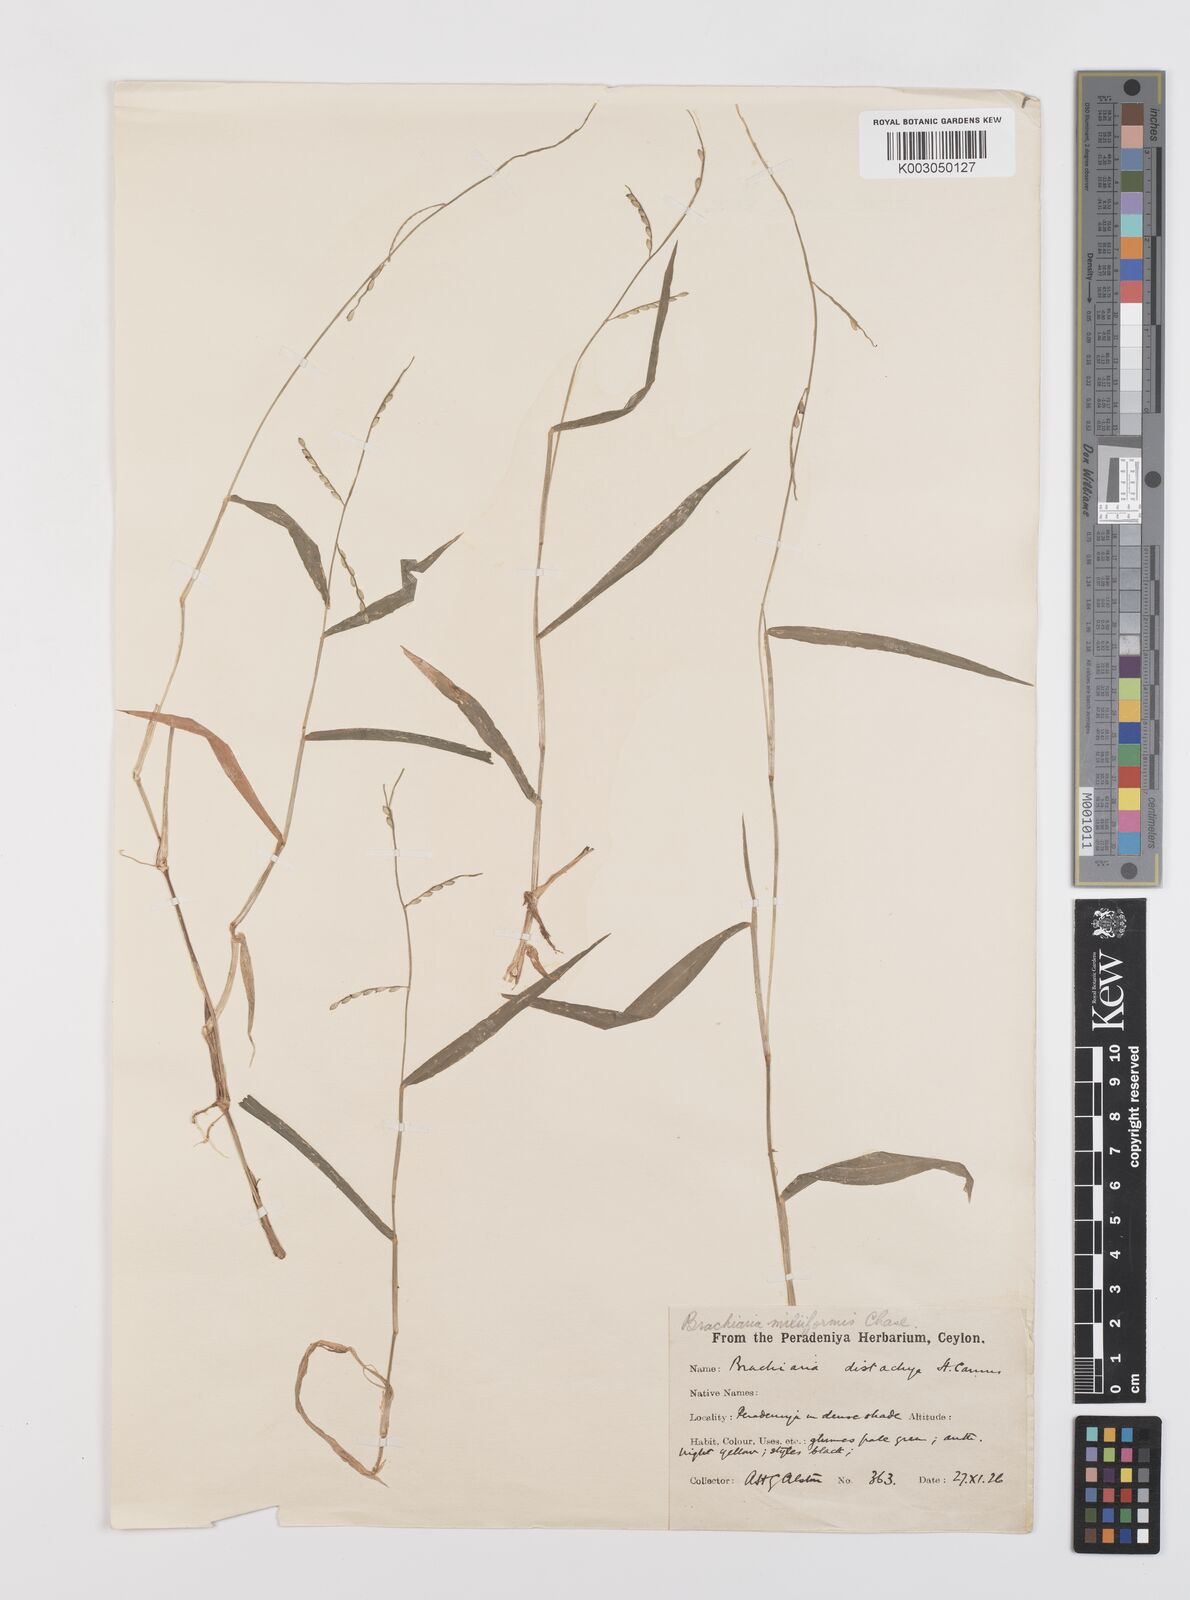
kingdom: Plantae
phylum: Tracheophyta
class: Liliopsida
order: Poales
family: Poaceae
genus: Urochloa
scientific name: Urochloa subquadripara
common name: Armgrass millet
